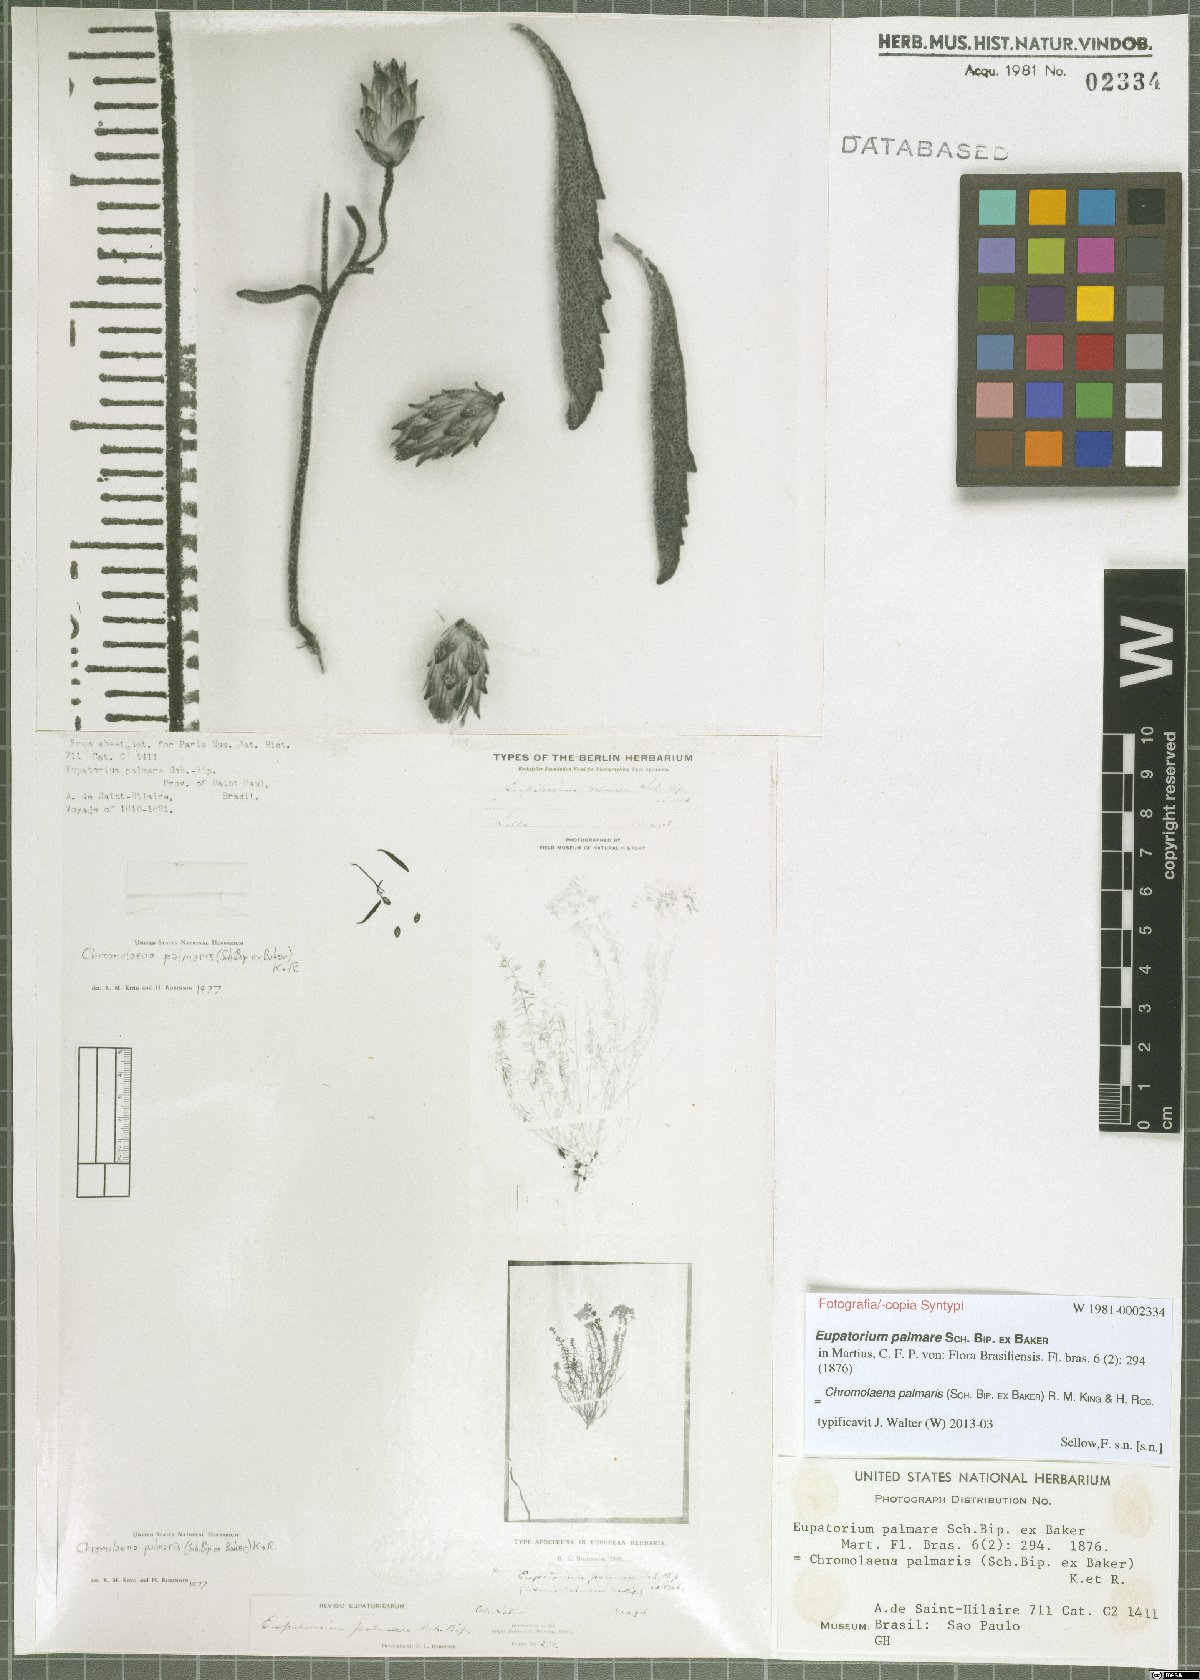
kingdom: Plantae
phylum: Tracheophyta
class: Magnoliopsida
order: Asterales
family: Asteraceae
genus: Chromolaena
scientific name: Chromolaena palmaris
